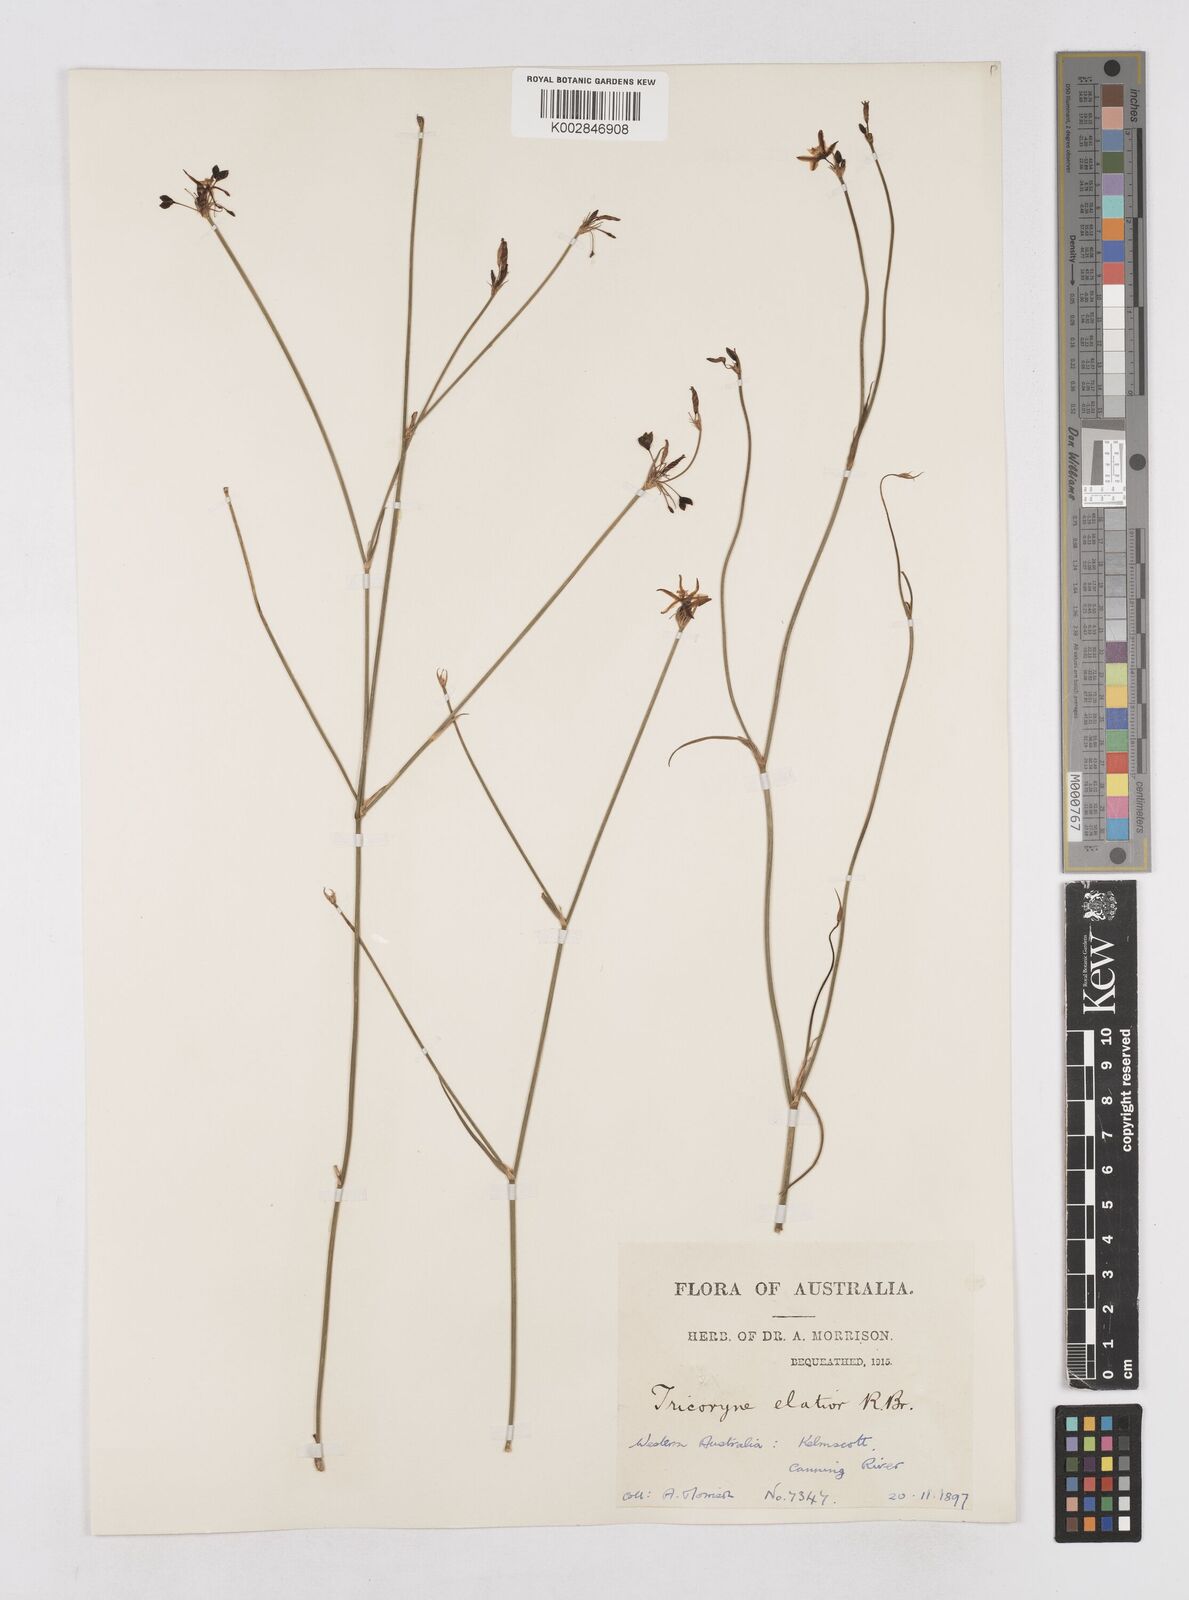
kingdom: Plantae
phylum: Tracheophyta
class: Liliopsida
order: Asparagales
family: Asphodelaceae
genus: Tricoryne
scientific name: Tricoryne elatior
